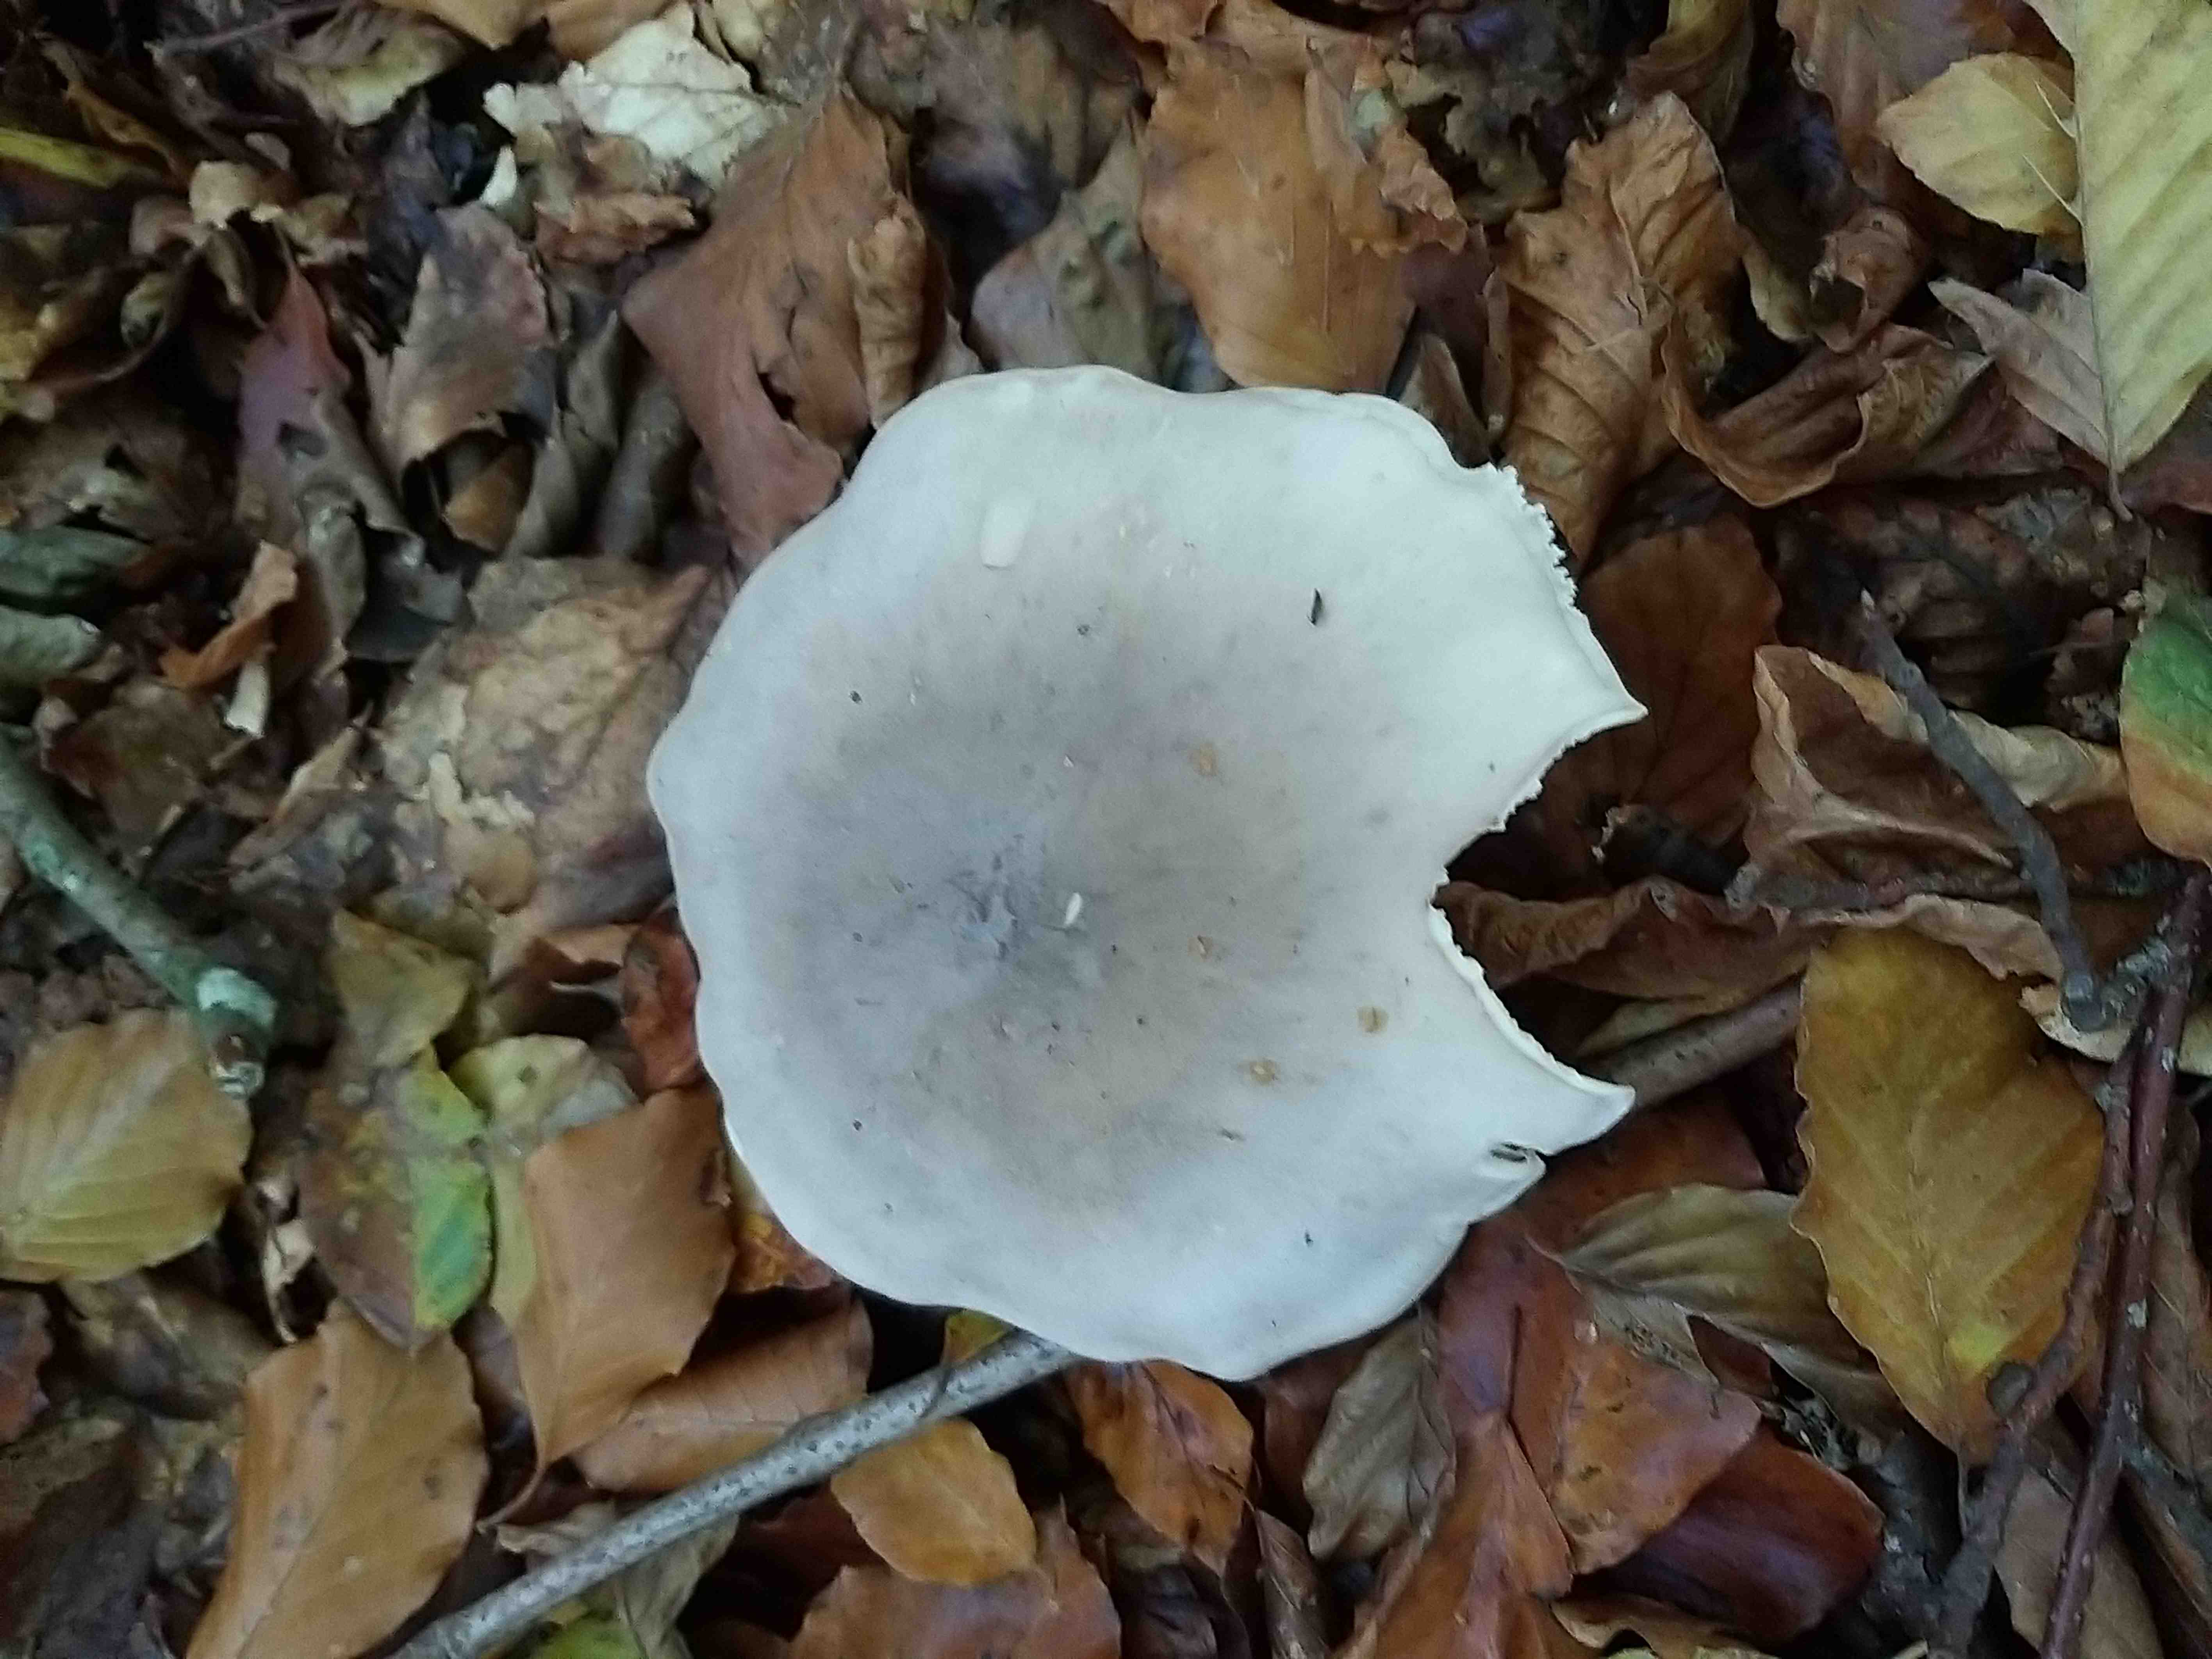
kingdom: Fungi
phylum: Basidiomycota
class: Agaricomycetes
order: Agaricales
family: Tricholomataceae
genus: Clitocybe
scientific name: Clitocybe nebularis
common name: tåge-tragthat
